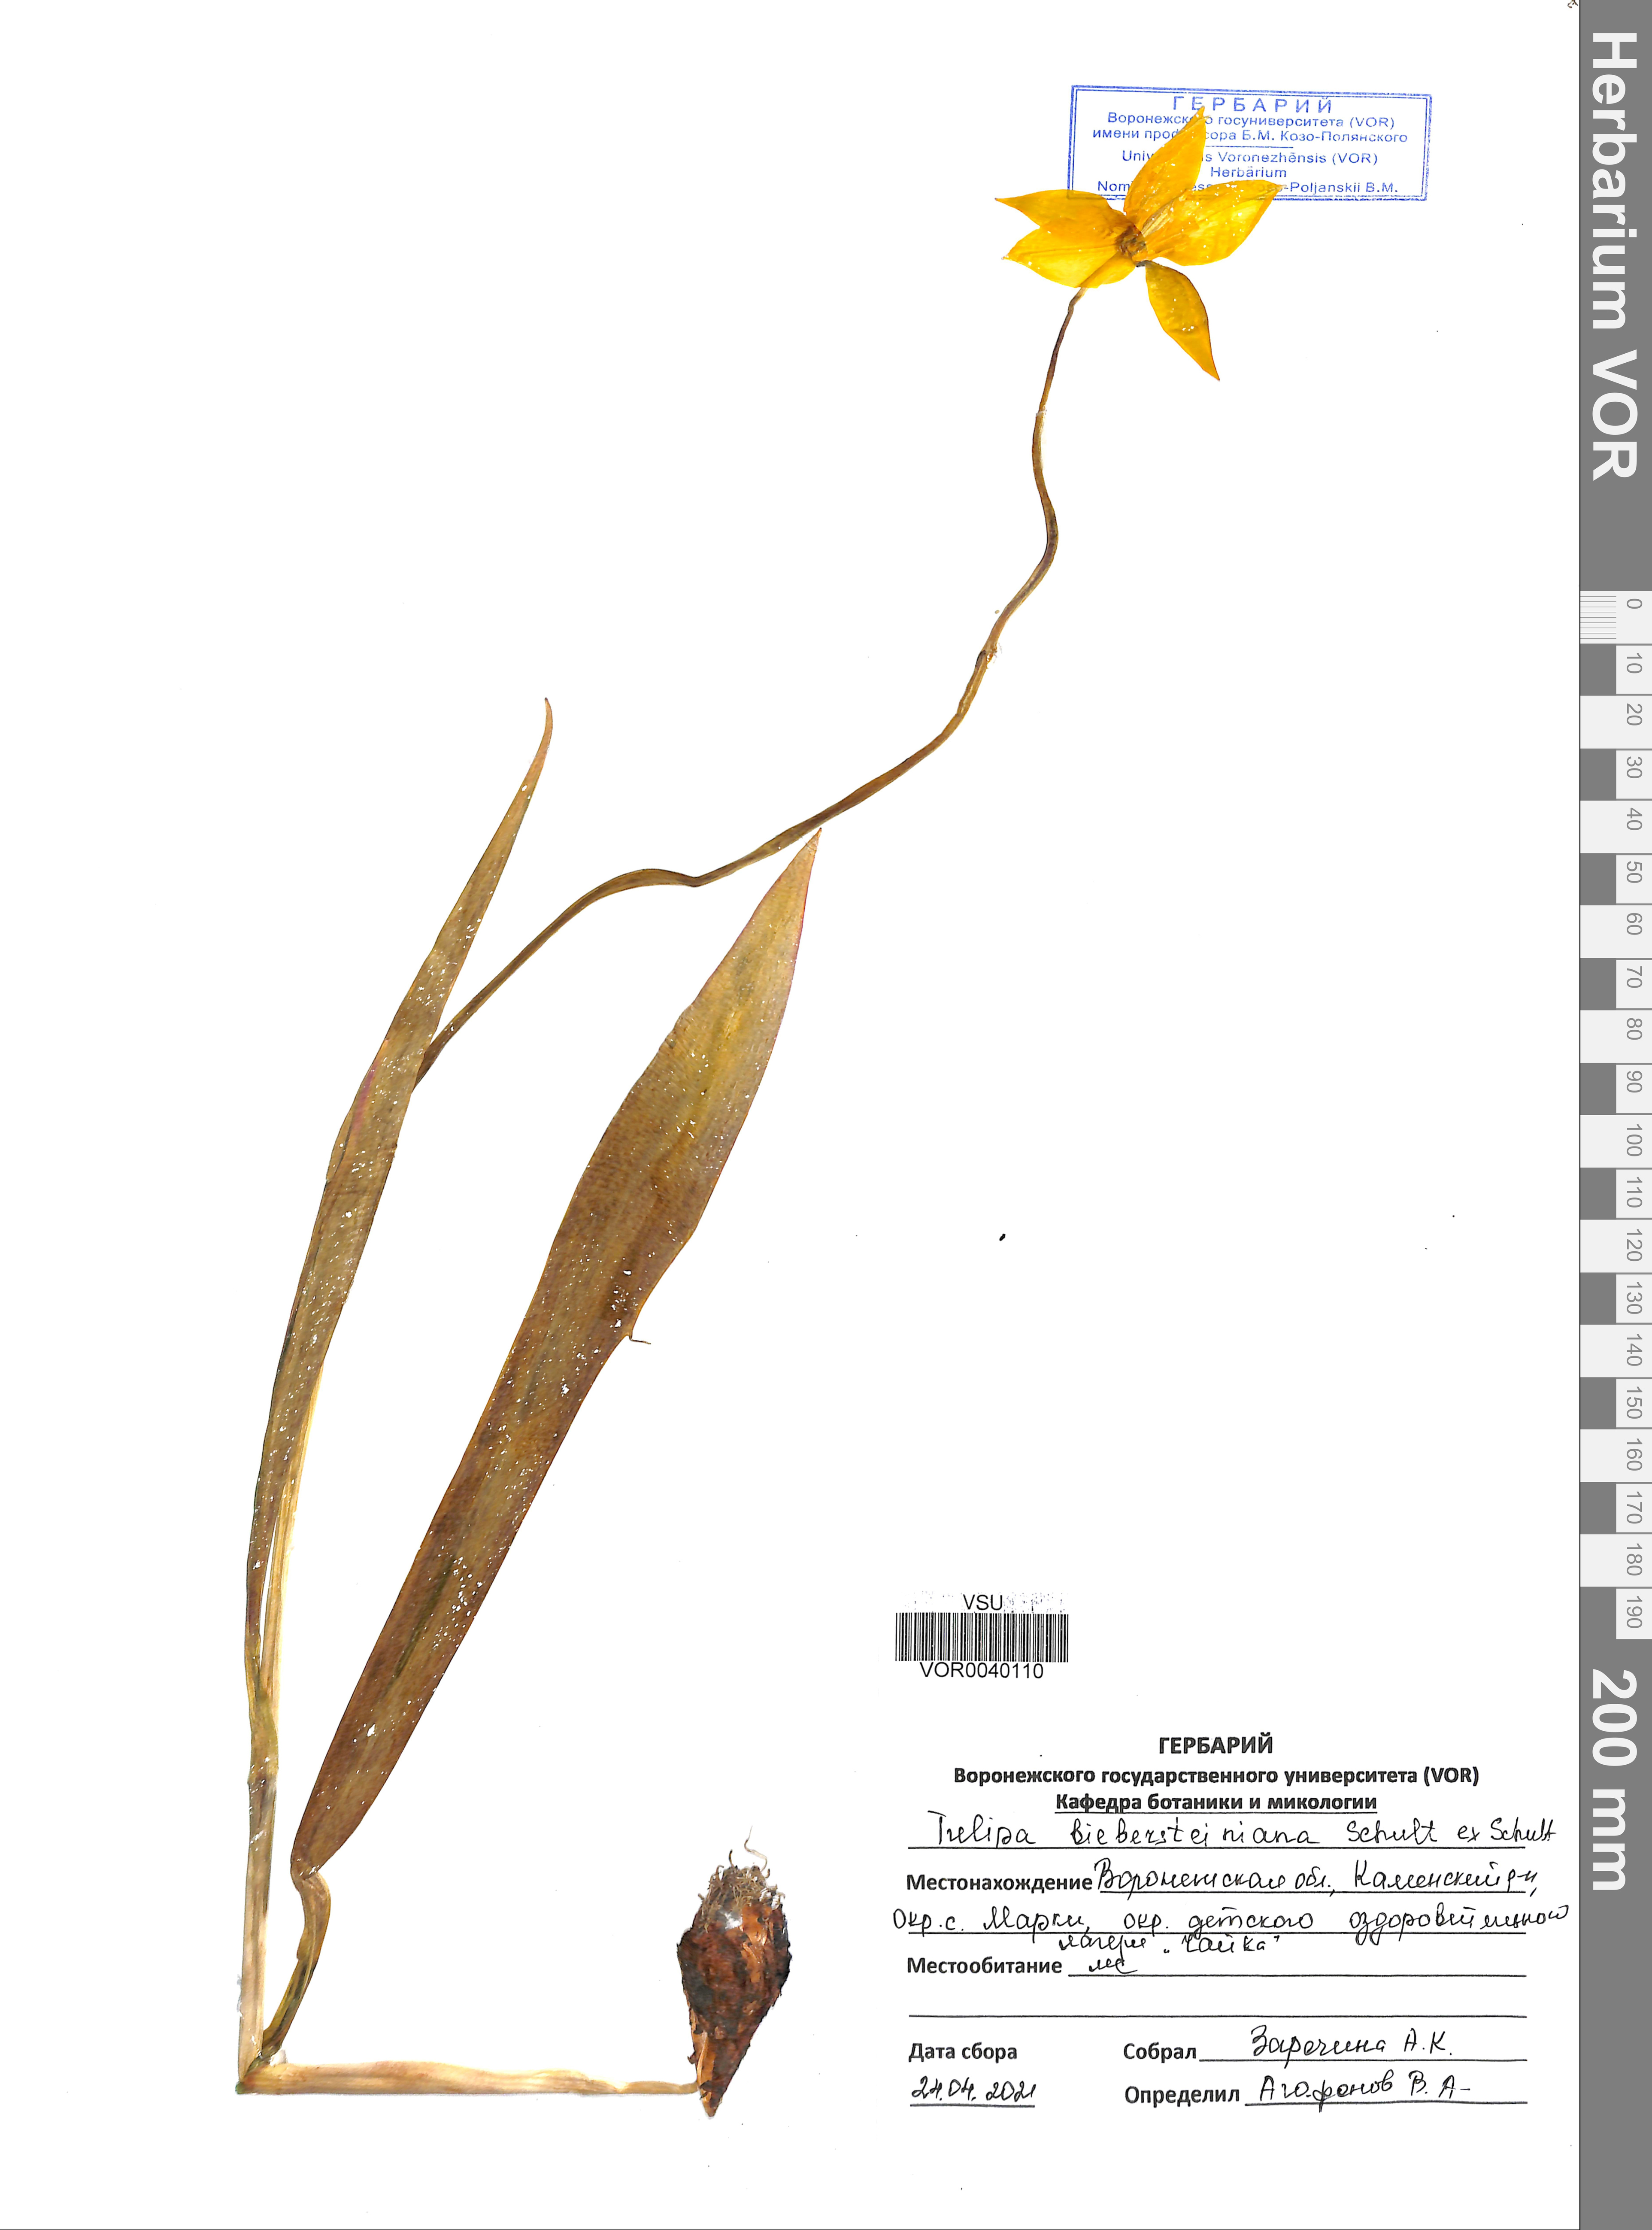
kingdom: Plantae
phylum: Tracheophyta
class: Liliopsida
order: Liliales
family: Liliaceae
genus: Tulipa
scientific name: Tulipa sylvestris
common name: Wild tulip
